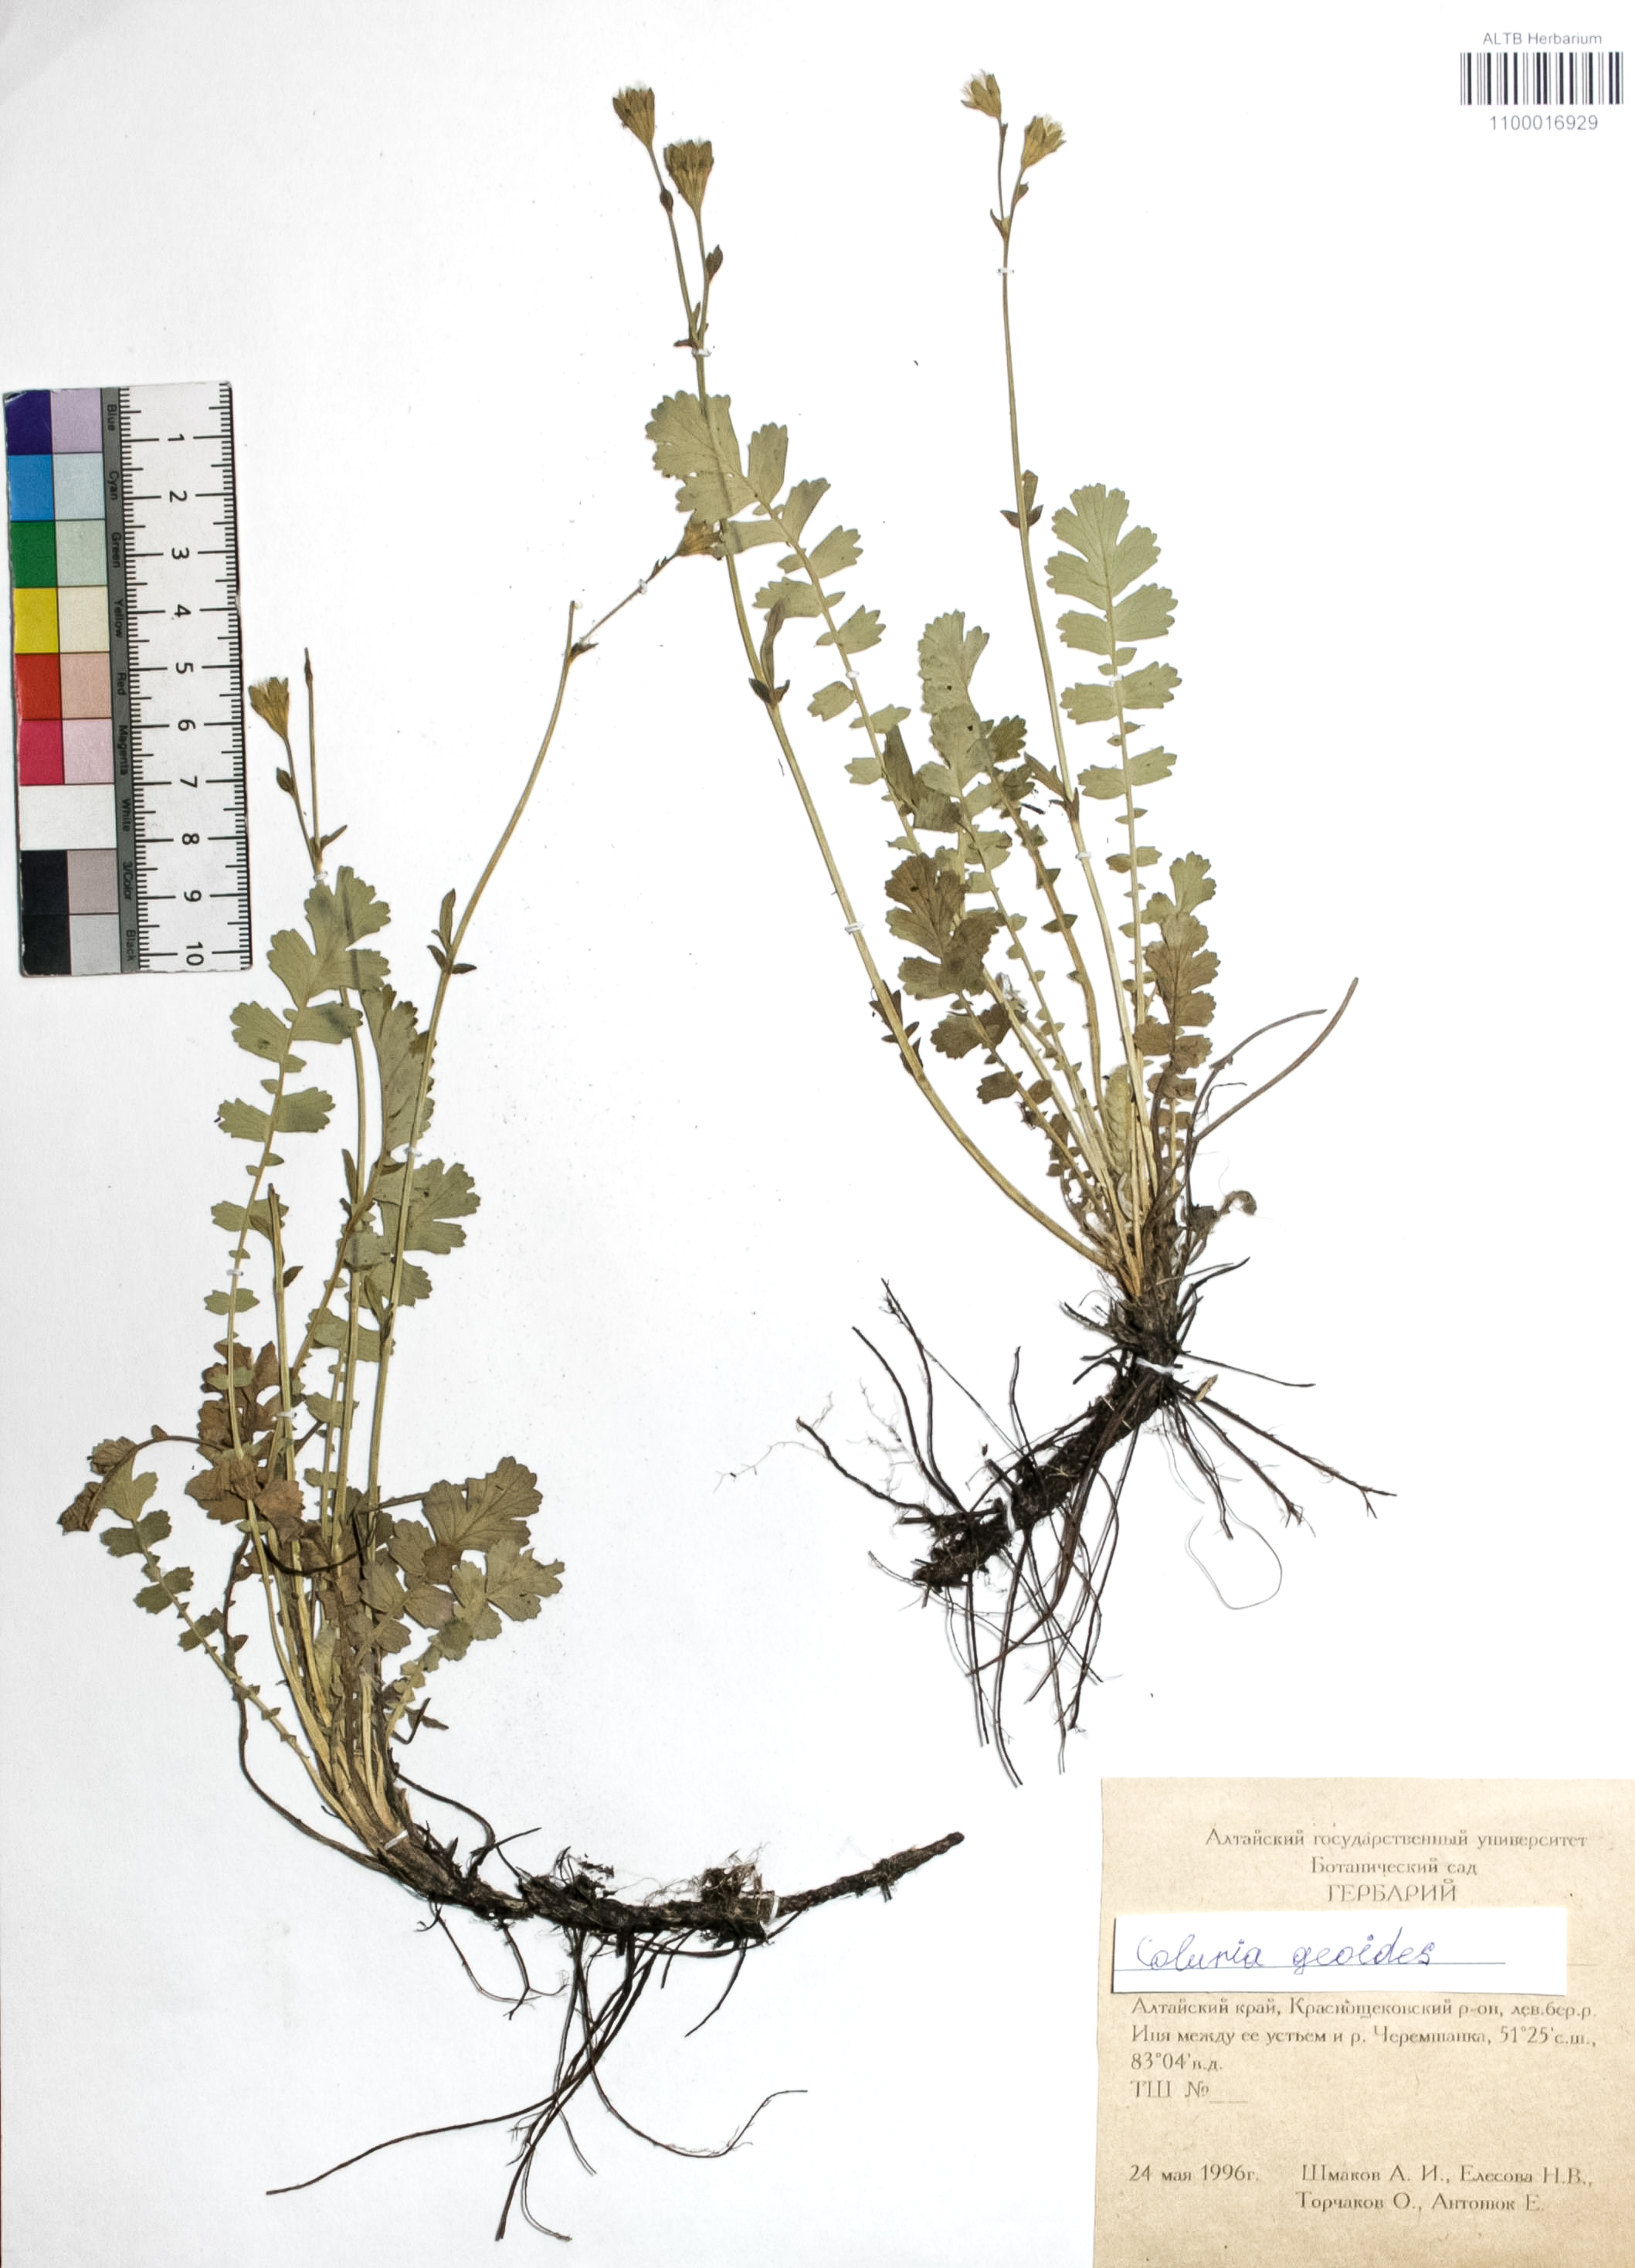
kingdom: Plantae
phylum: Tracheophyta
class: Magnoliopsida
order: Rosales
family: Rosaceae
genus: Geum
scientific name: Geum aleppicum
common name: Yellow avens
